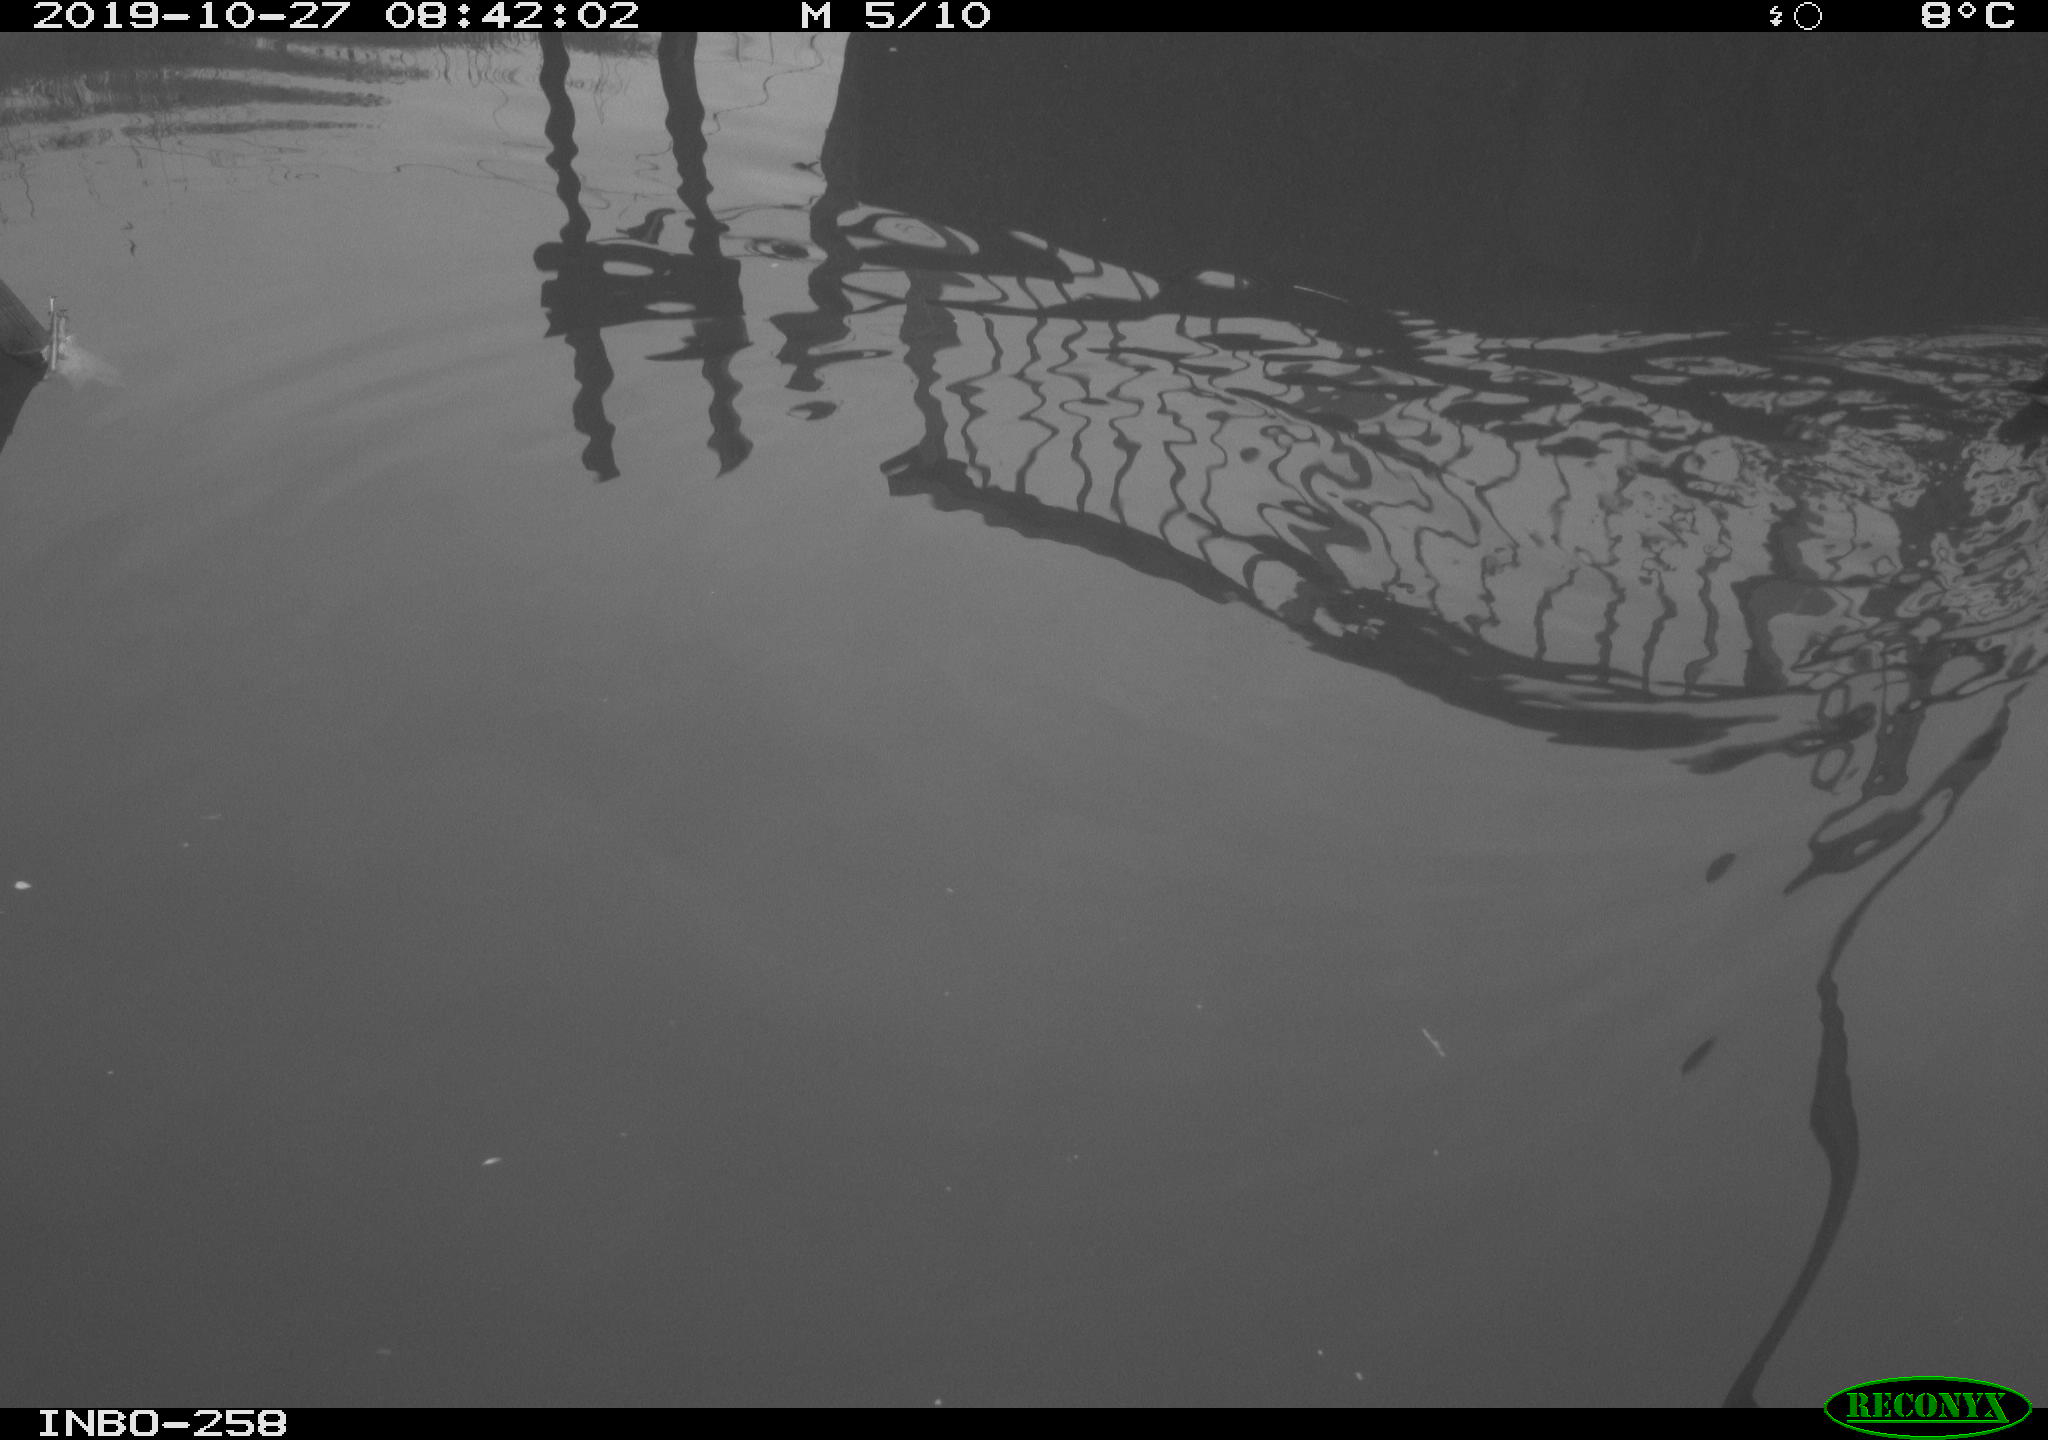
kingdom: Animalia
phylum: Chordata
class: Aves
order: Gruiformes
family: Rallidae
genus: Gallinula
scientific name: Gallinula chloropus
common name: Common moorhen
